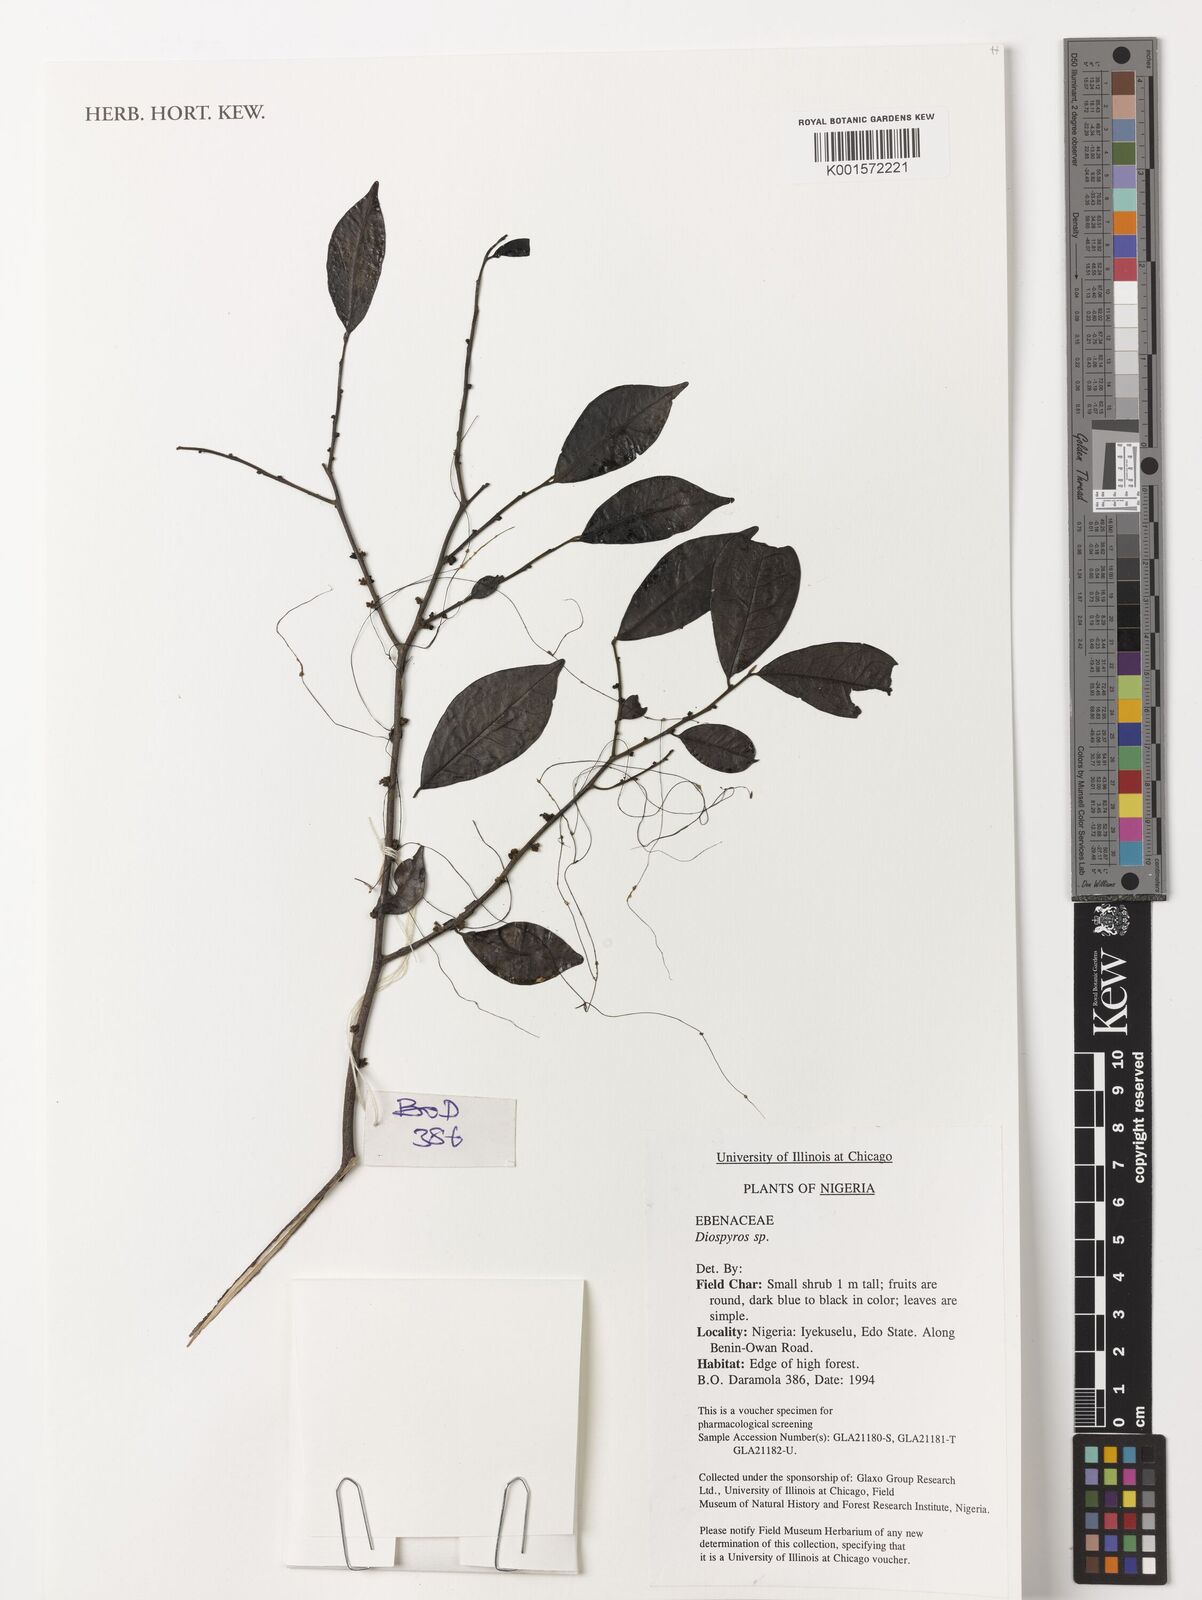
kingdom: Plantae
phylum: Tracheophyta
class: Magnoliopsida
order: Ericales
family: Ebenaceae
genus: Diospyros
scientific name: Diospyros
